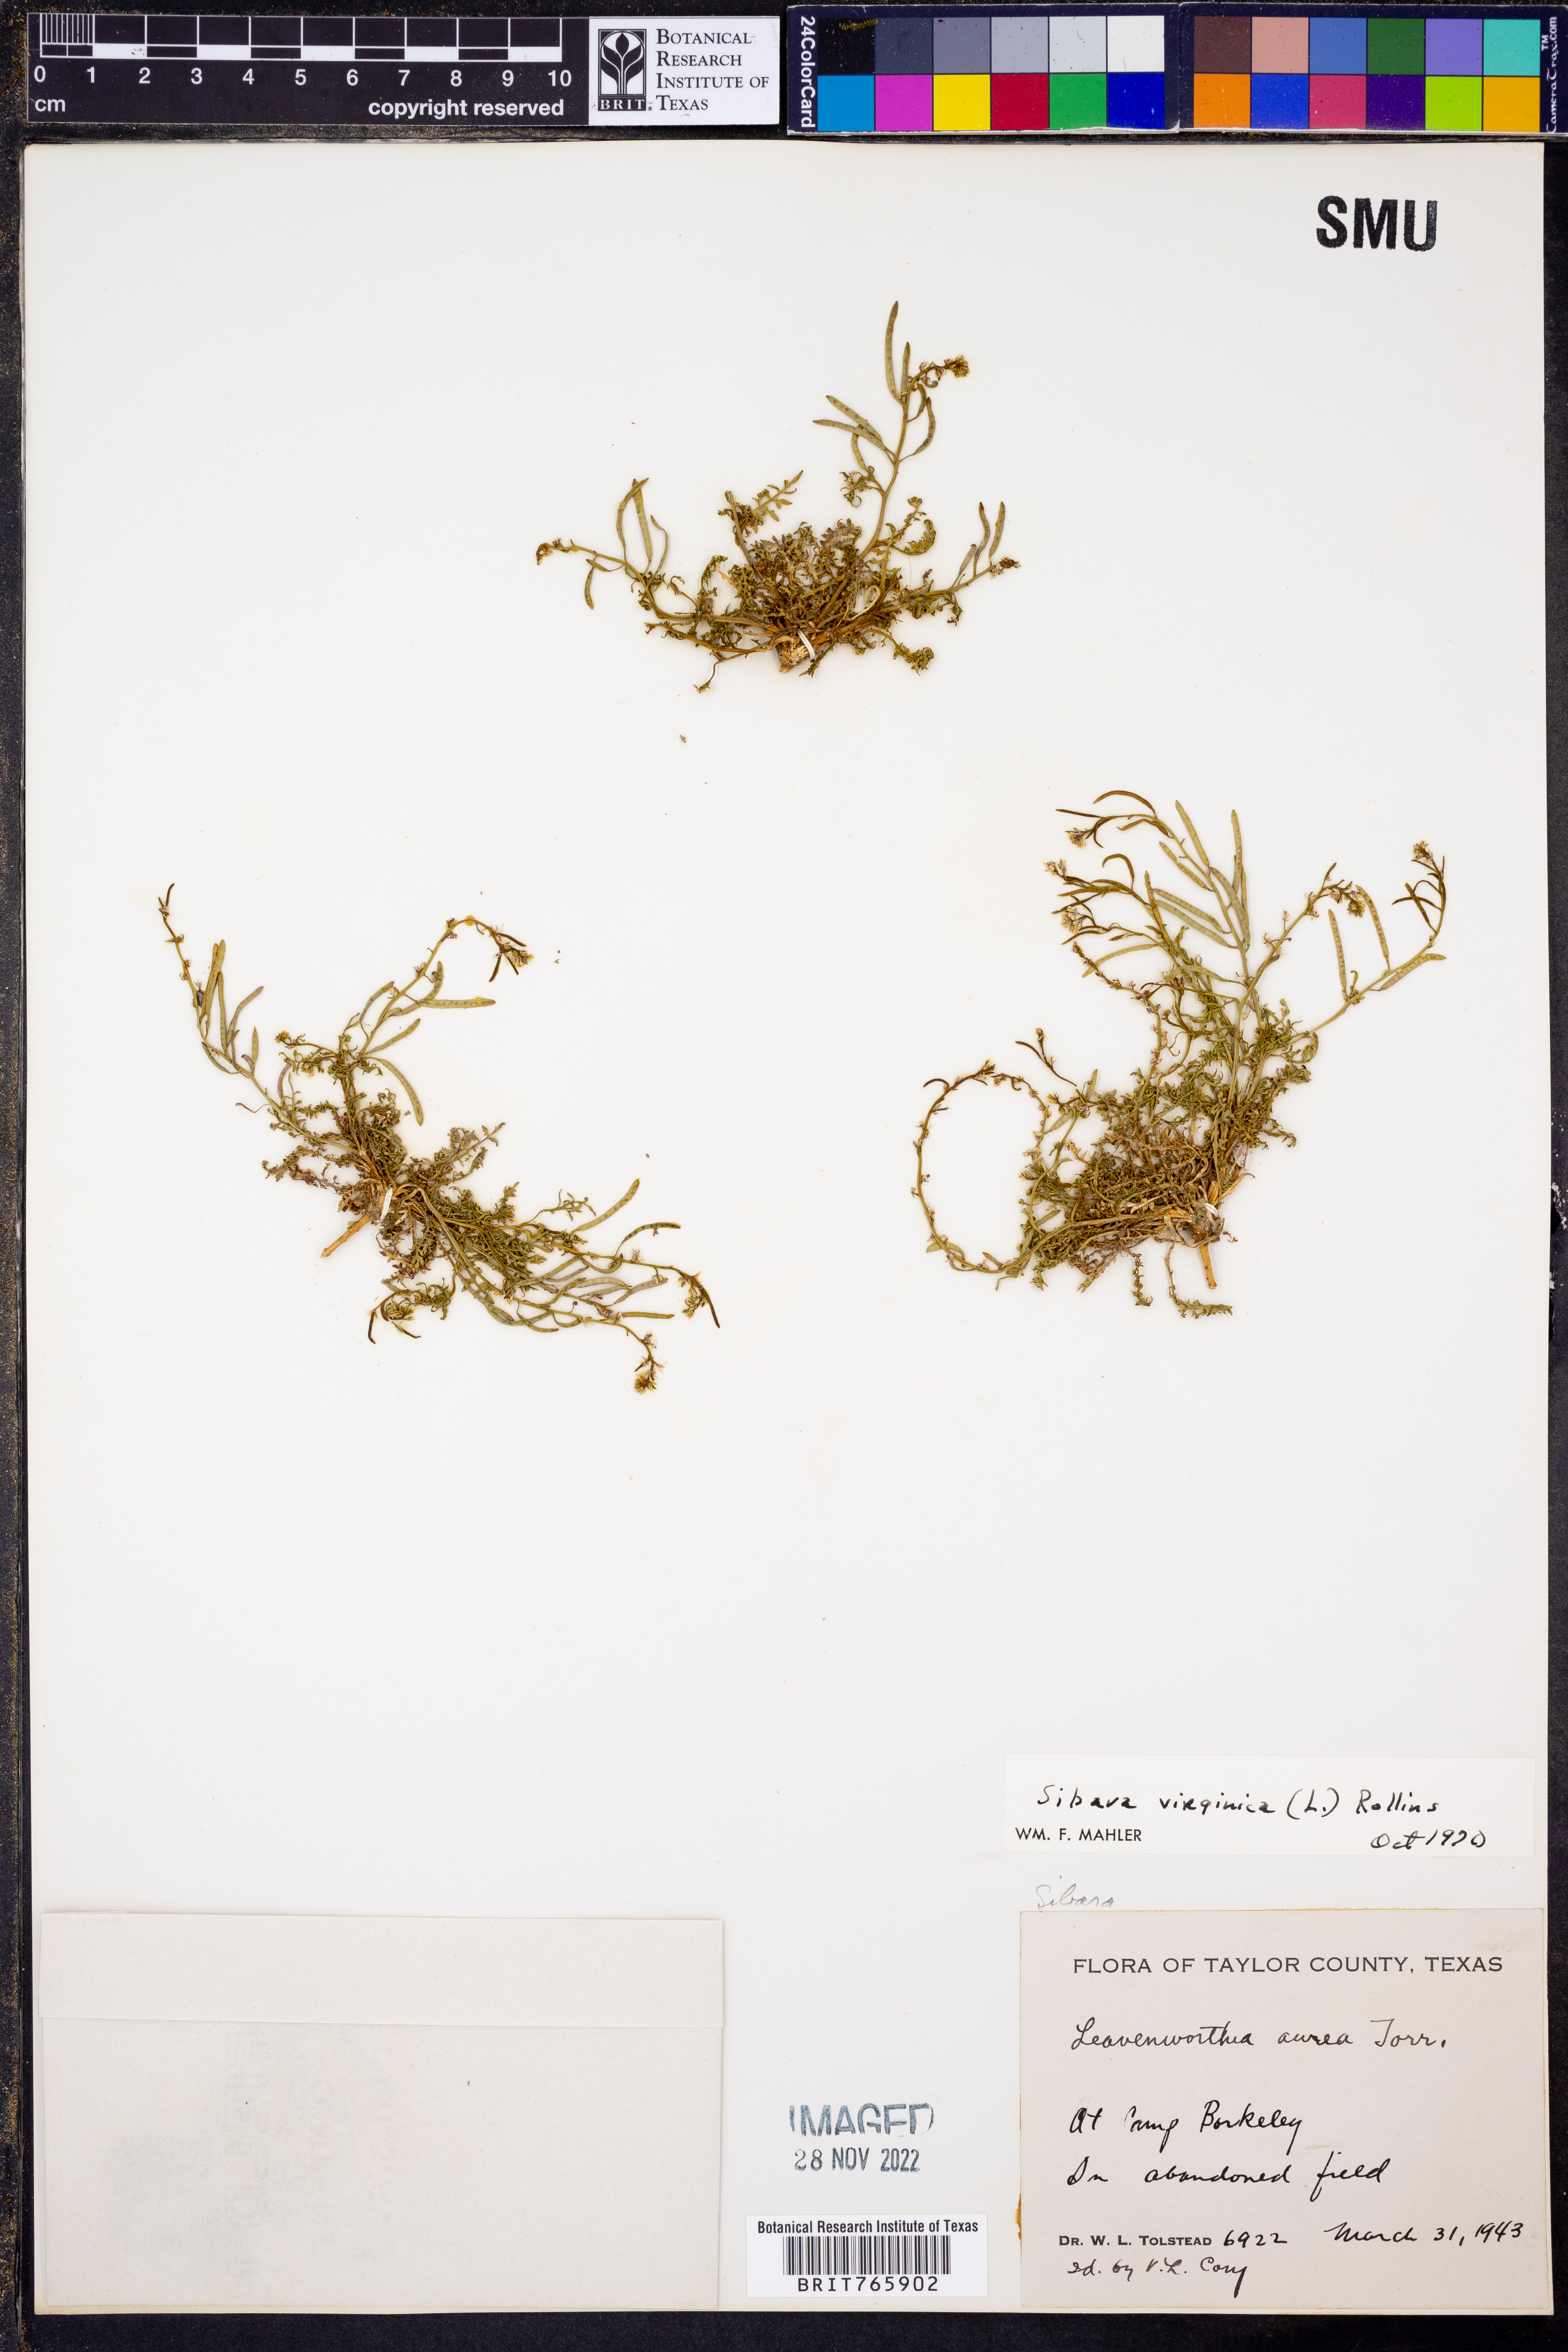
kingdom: Plantae
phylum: Tracheophyta
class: Magnoliopsida
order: Brassicales
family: Brassicaceae
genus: Planodes
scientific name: Planodes virginicum
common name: Virginia cress
